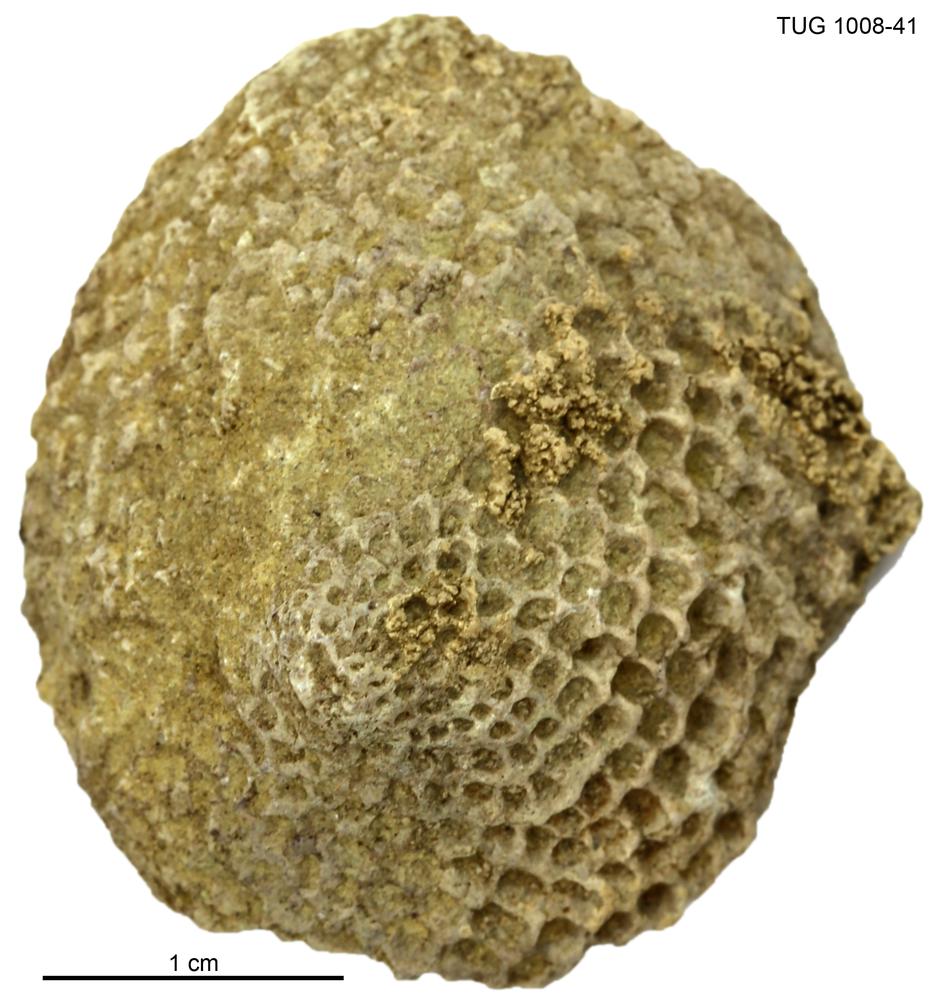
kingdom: Plantae
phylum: Chlorophyta
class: Chlorophyceae
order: Receptaculitales
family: Receptaculitaceae
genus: Ischadites
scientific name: Ischadites
